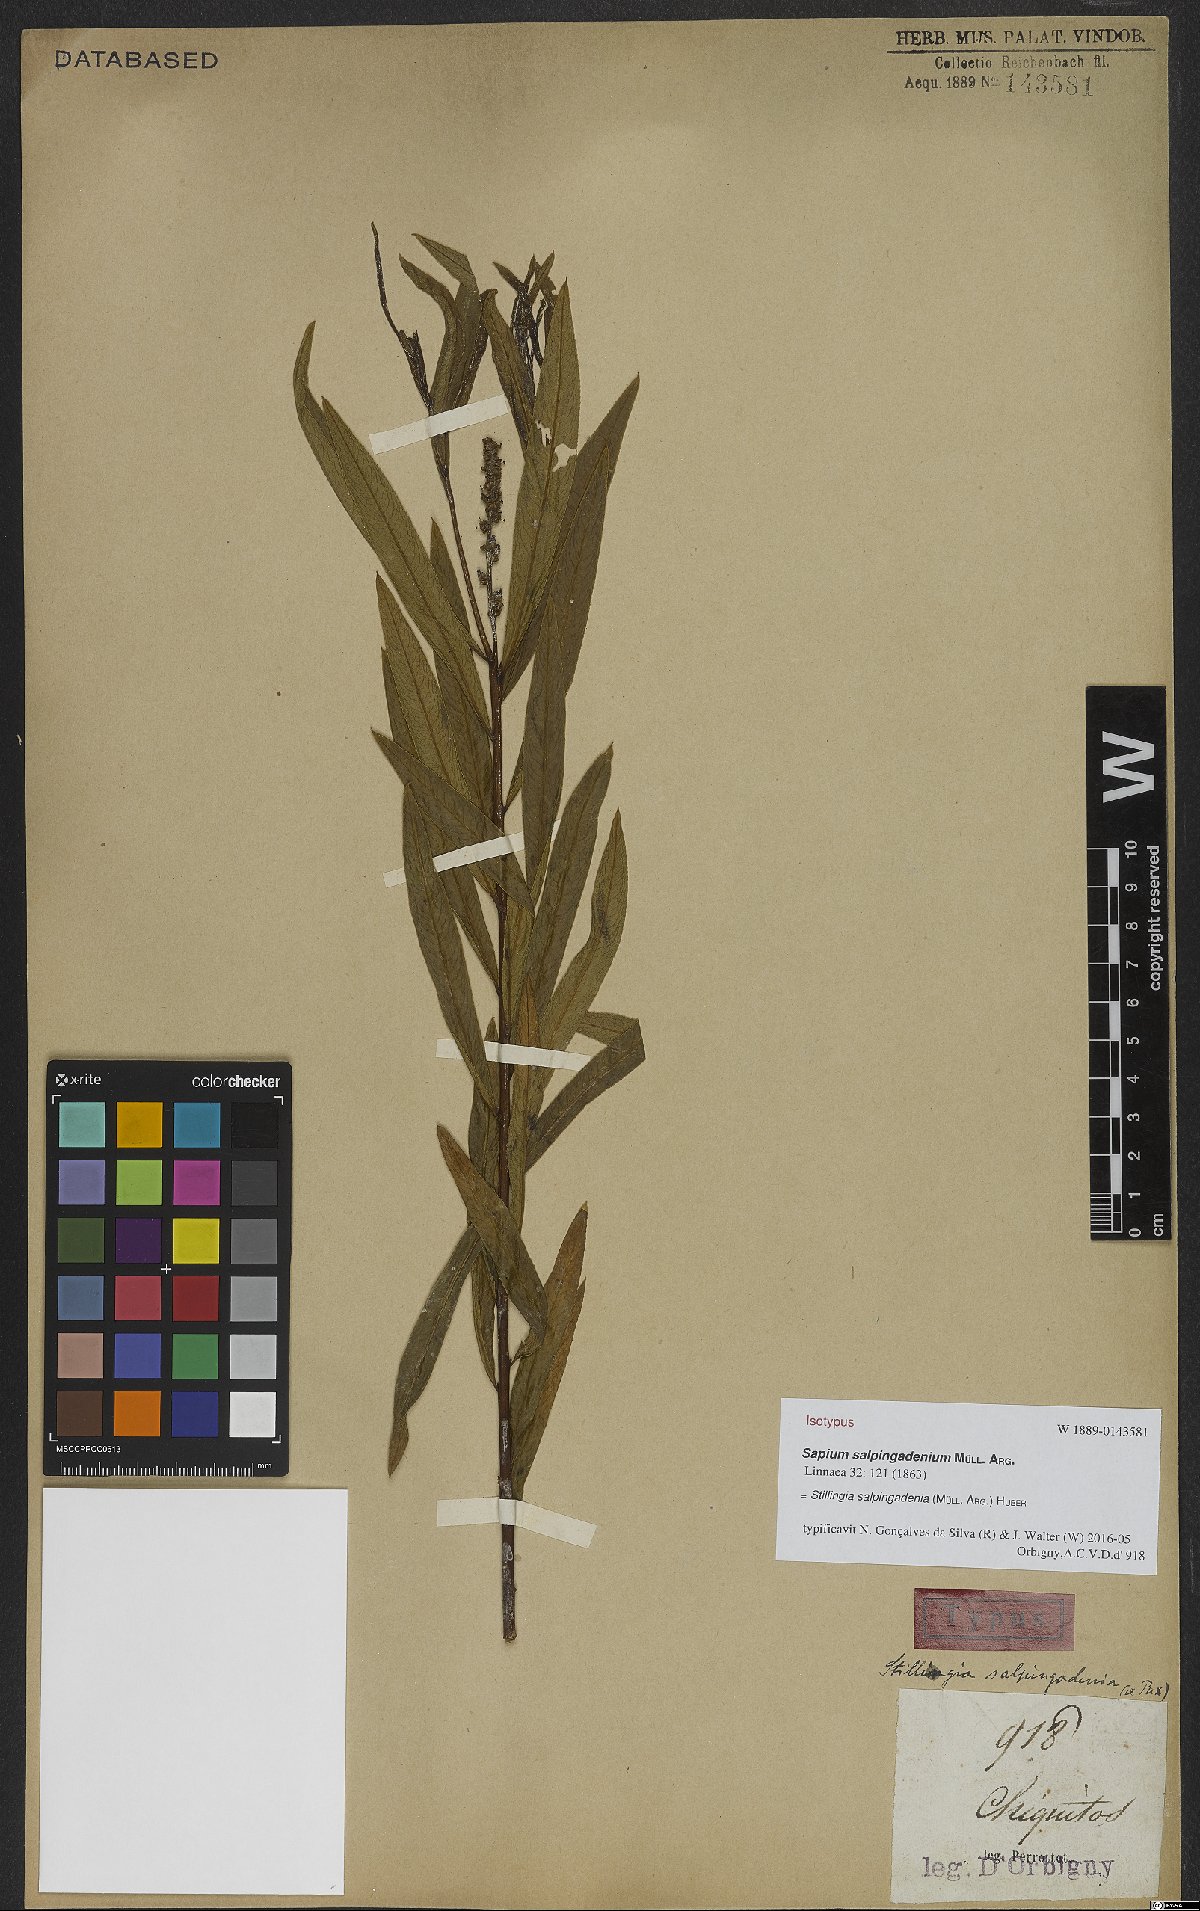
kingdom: Plantae
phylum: Tracheophyta
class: Magnoliopsida
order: Malpighiales
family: Euphorbiaceae
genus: Stillingia
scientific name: Stillingia salpingadenia
